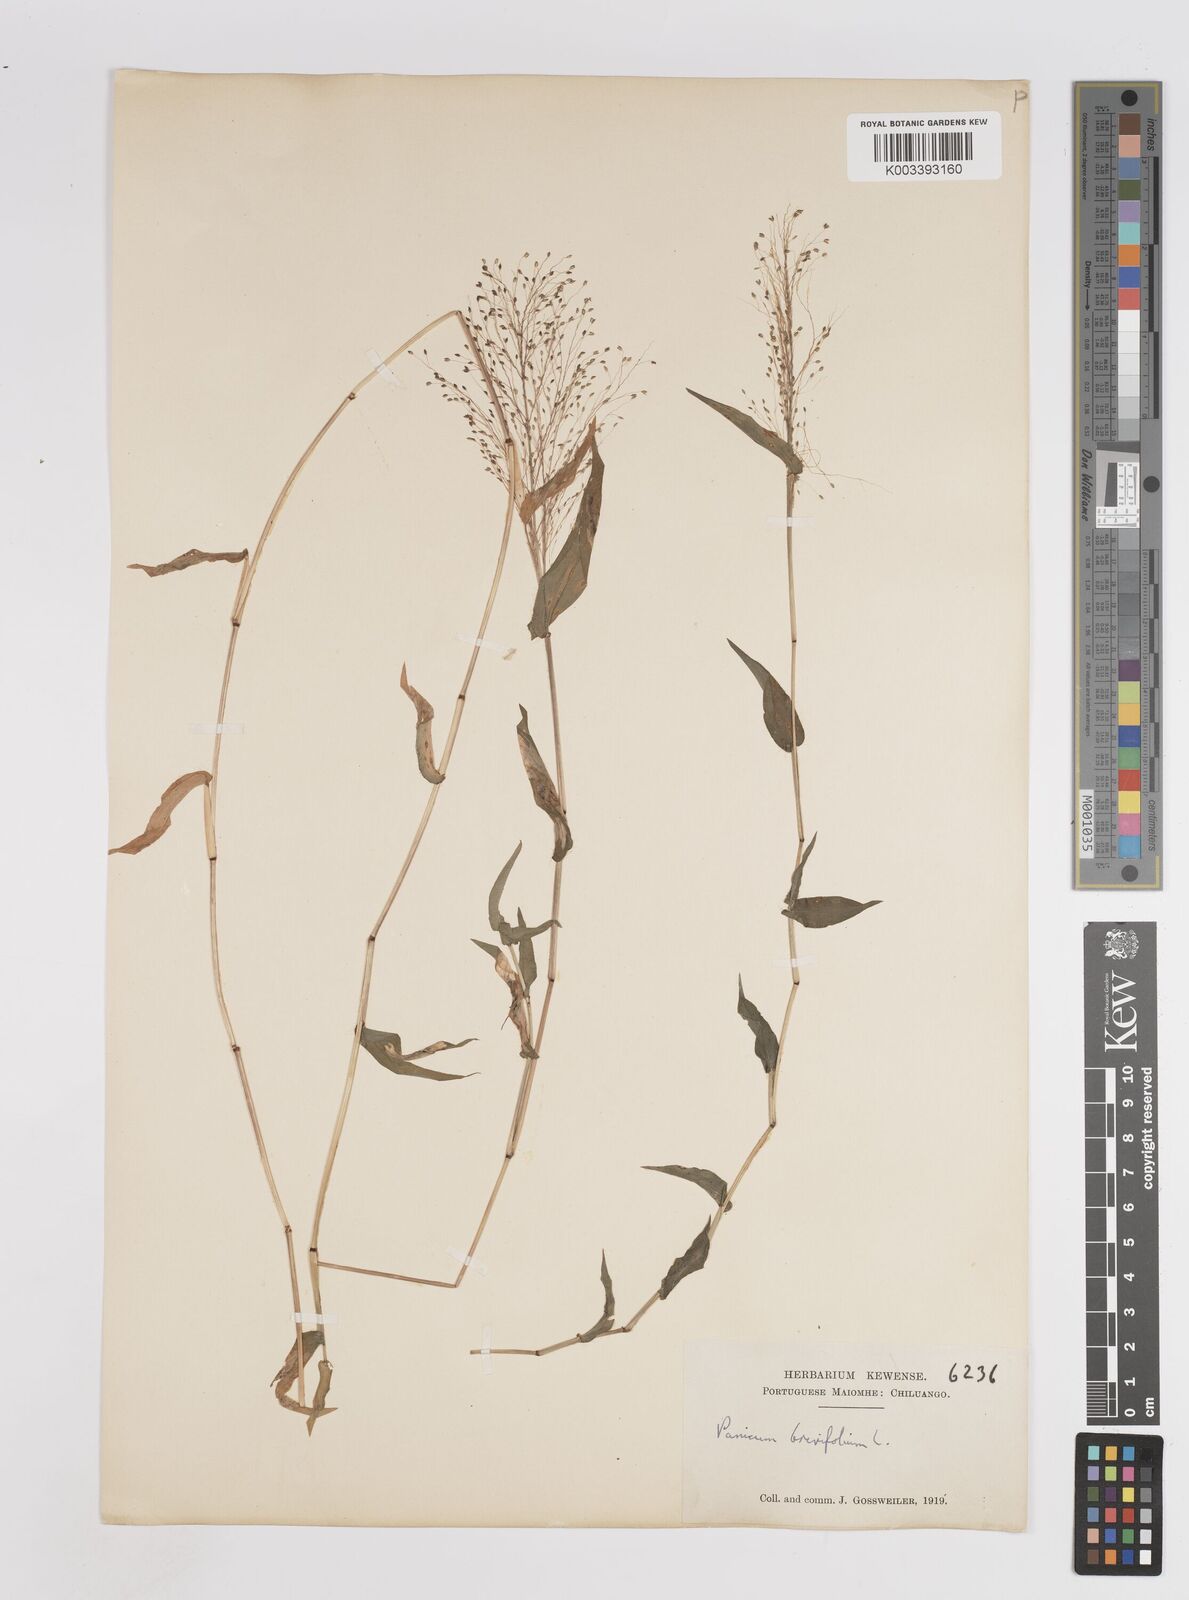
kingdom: Plantae
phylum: Tracheophyta
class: Liliopsida
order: Poales
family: Poaceae
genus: Panicum
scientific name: Panicum brevifolium
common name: Shortleaf panic grass
